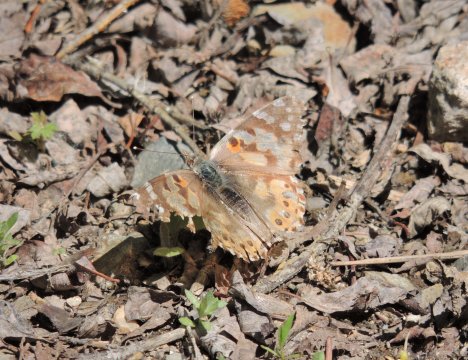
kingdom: Animalia
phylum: Arthropoda
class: Insecta
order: Lepidoptera
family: Nymphalidae
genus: Vanessa
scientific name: Vanessa cardui
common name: Painted Lady
